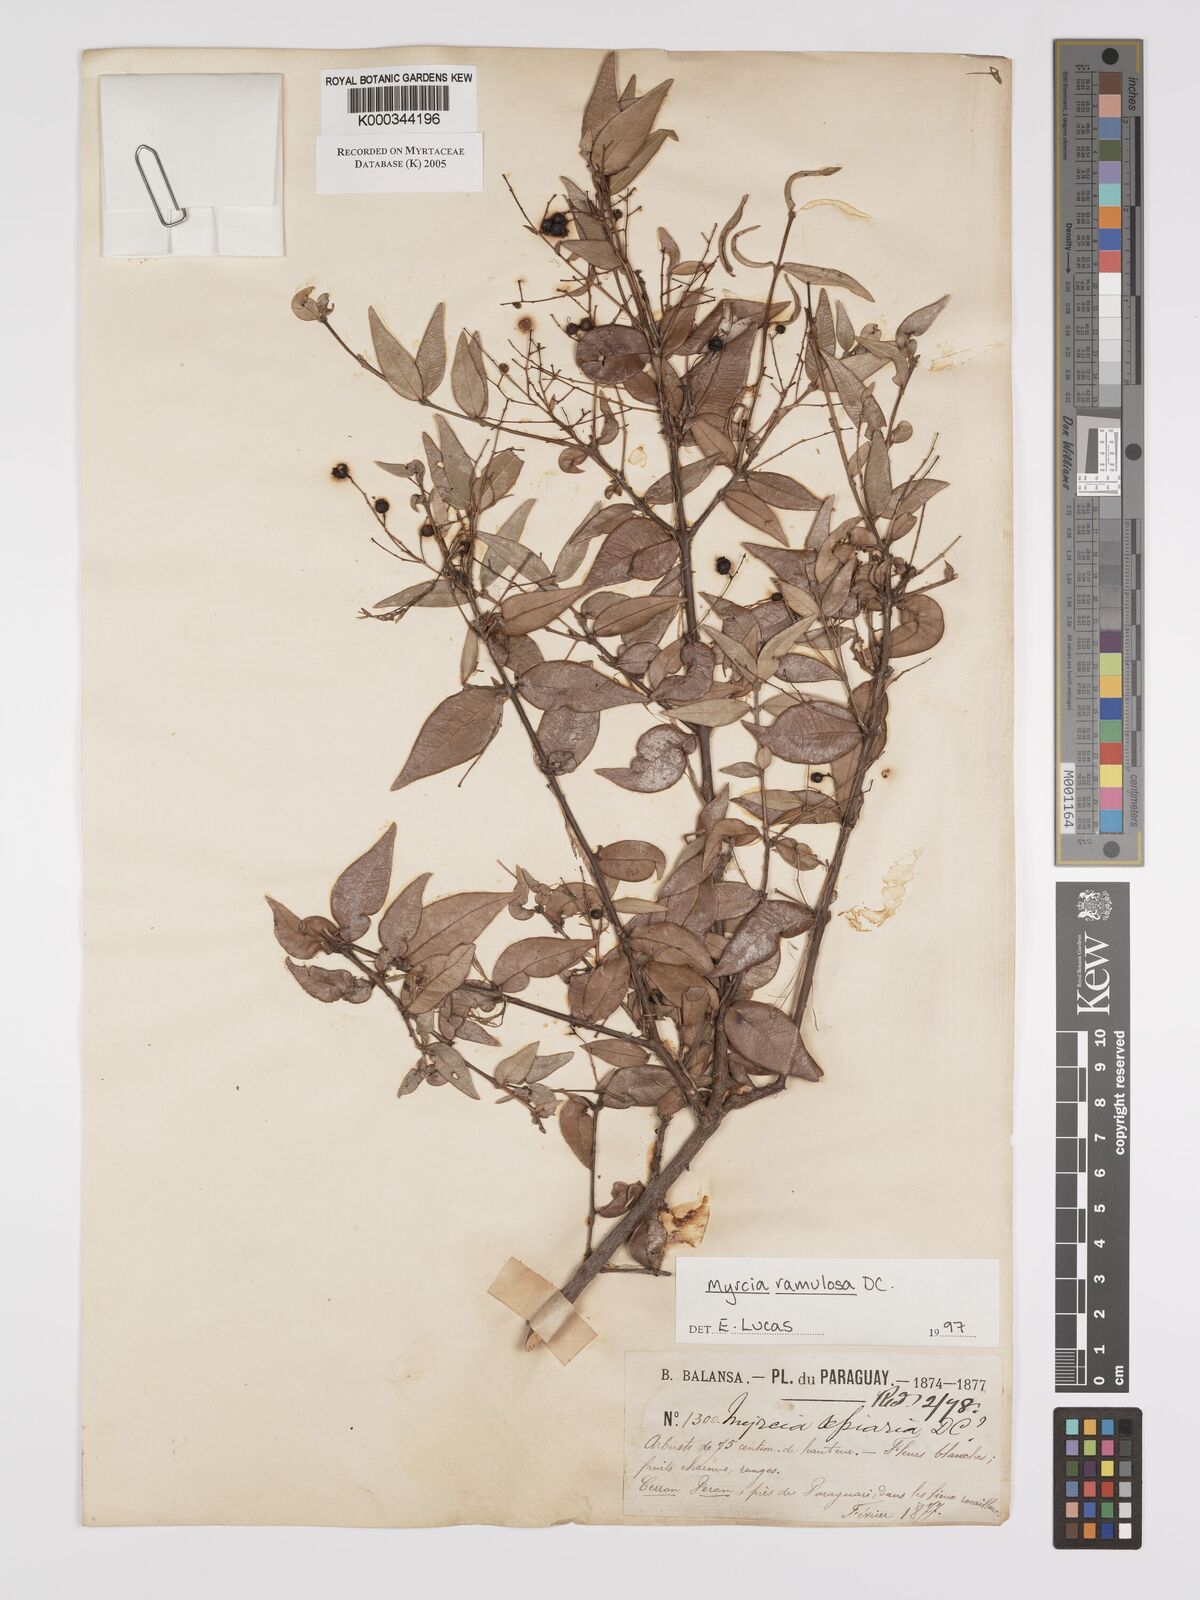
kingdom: Plantae
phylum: Tracheophyta
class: Magnoliopsida
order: Myrtales
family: Myrtaceae
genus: Myrcia
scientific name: Myrcia selloi
